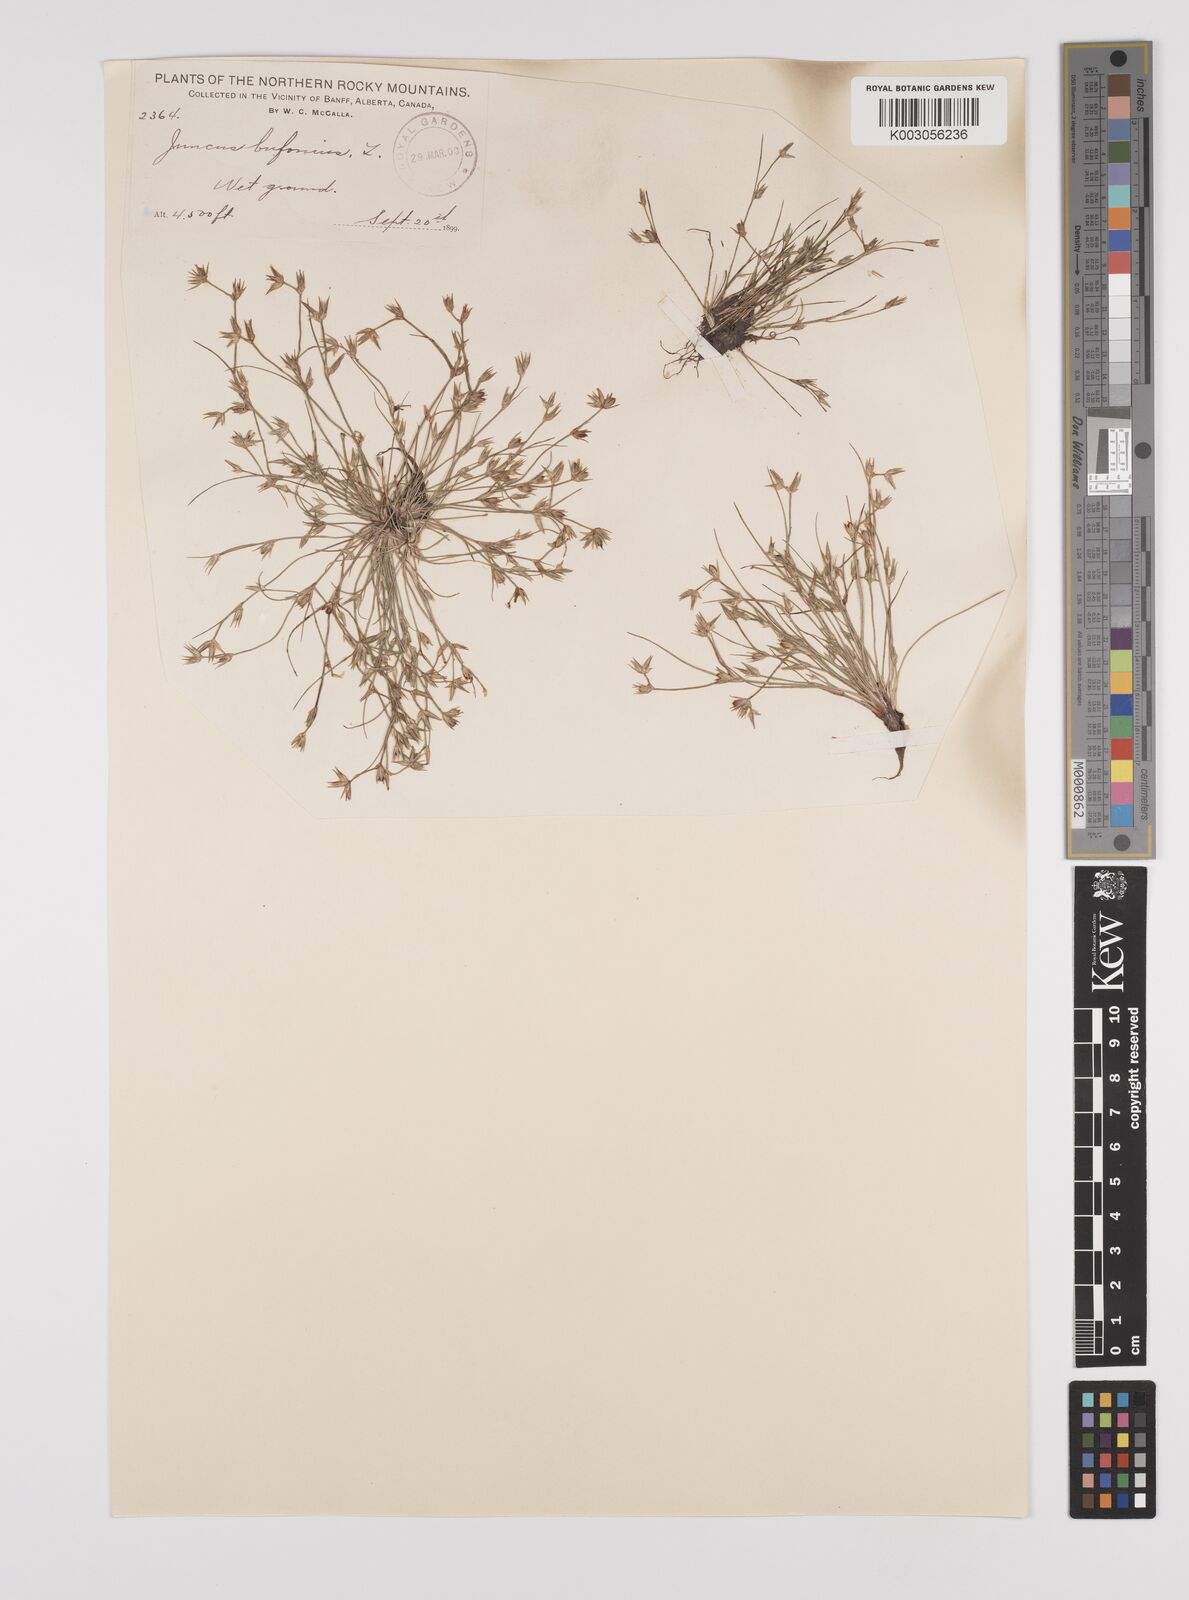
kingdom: Plantae
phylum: Tracheophyta
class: Liliopsida
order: Poales
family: Juncaceae
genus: Juncus
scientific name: Juncus bufonius
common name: Toad rush
